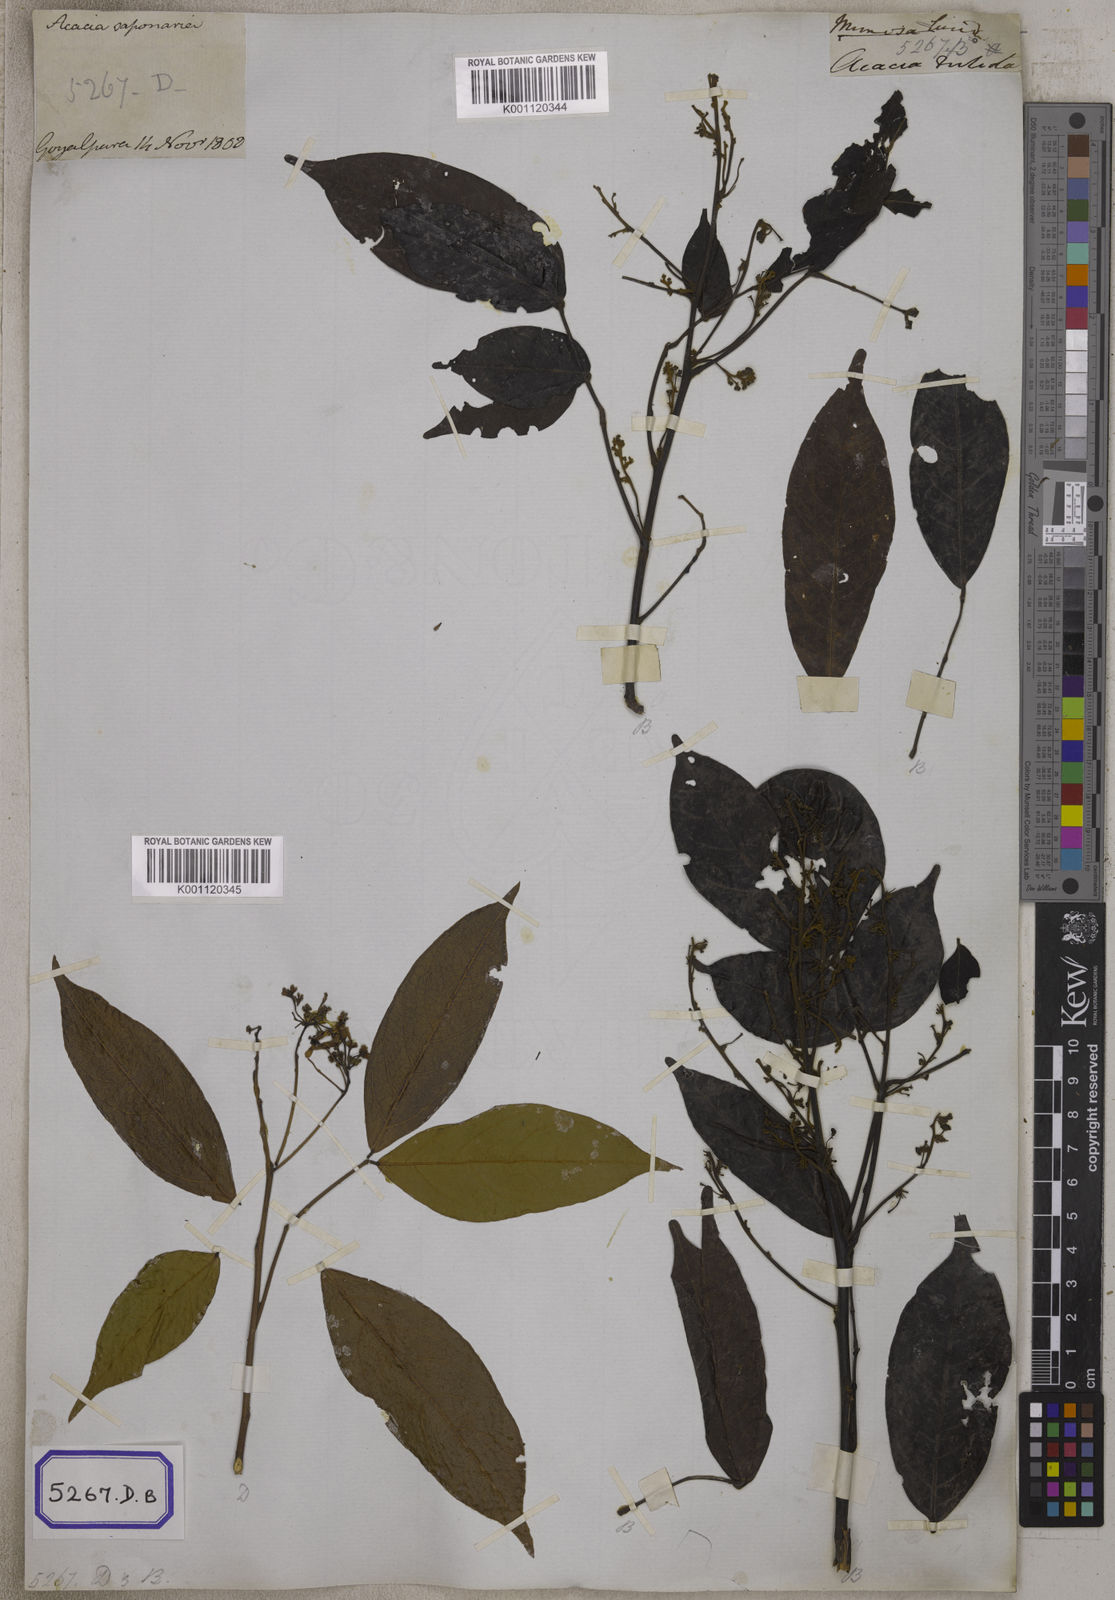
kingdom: Plantae
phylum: Tracheophyta
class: Magnoliopsida
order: Fabales
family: Fabaceae
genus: Albizia
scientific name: Albizia lucidior
